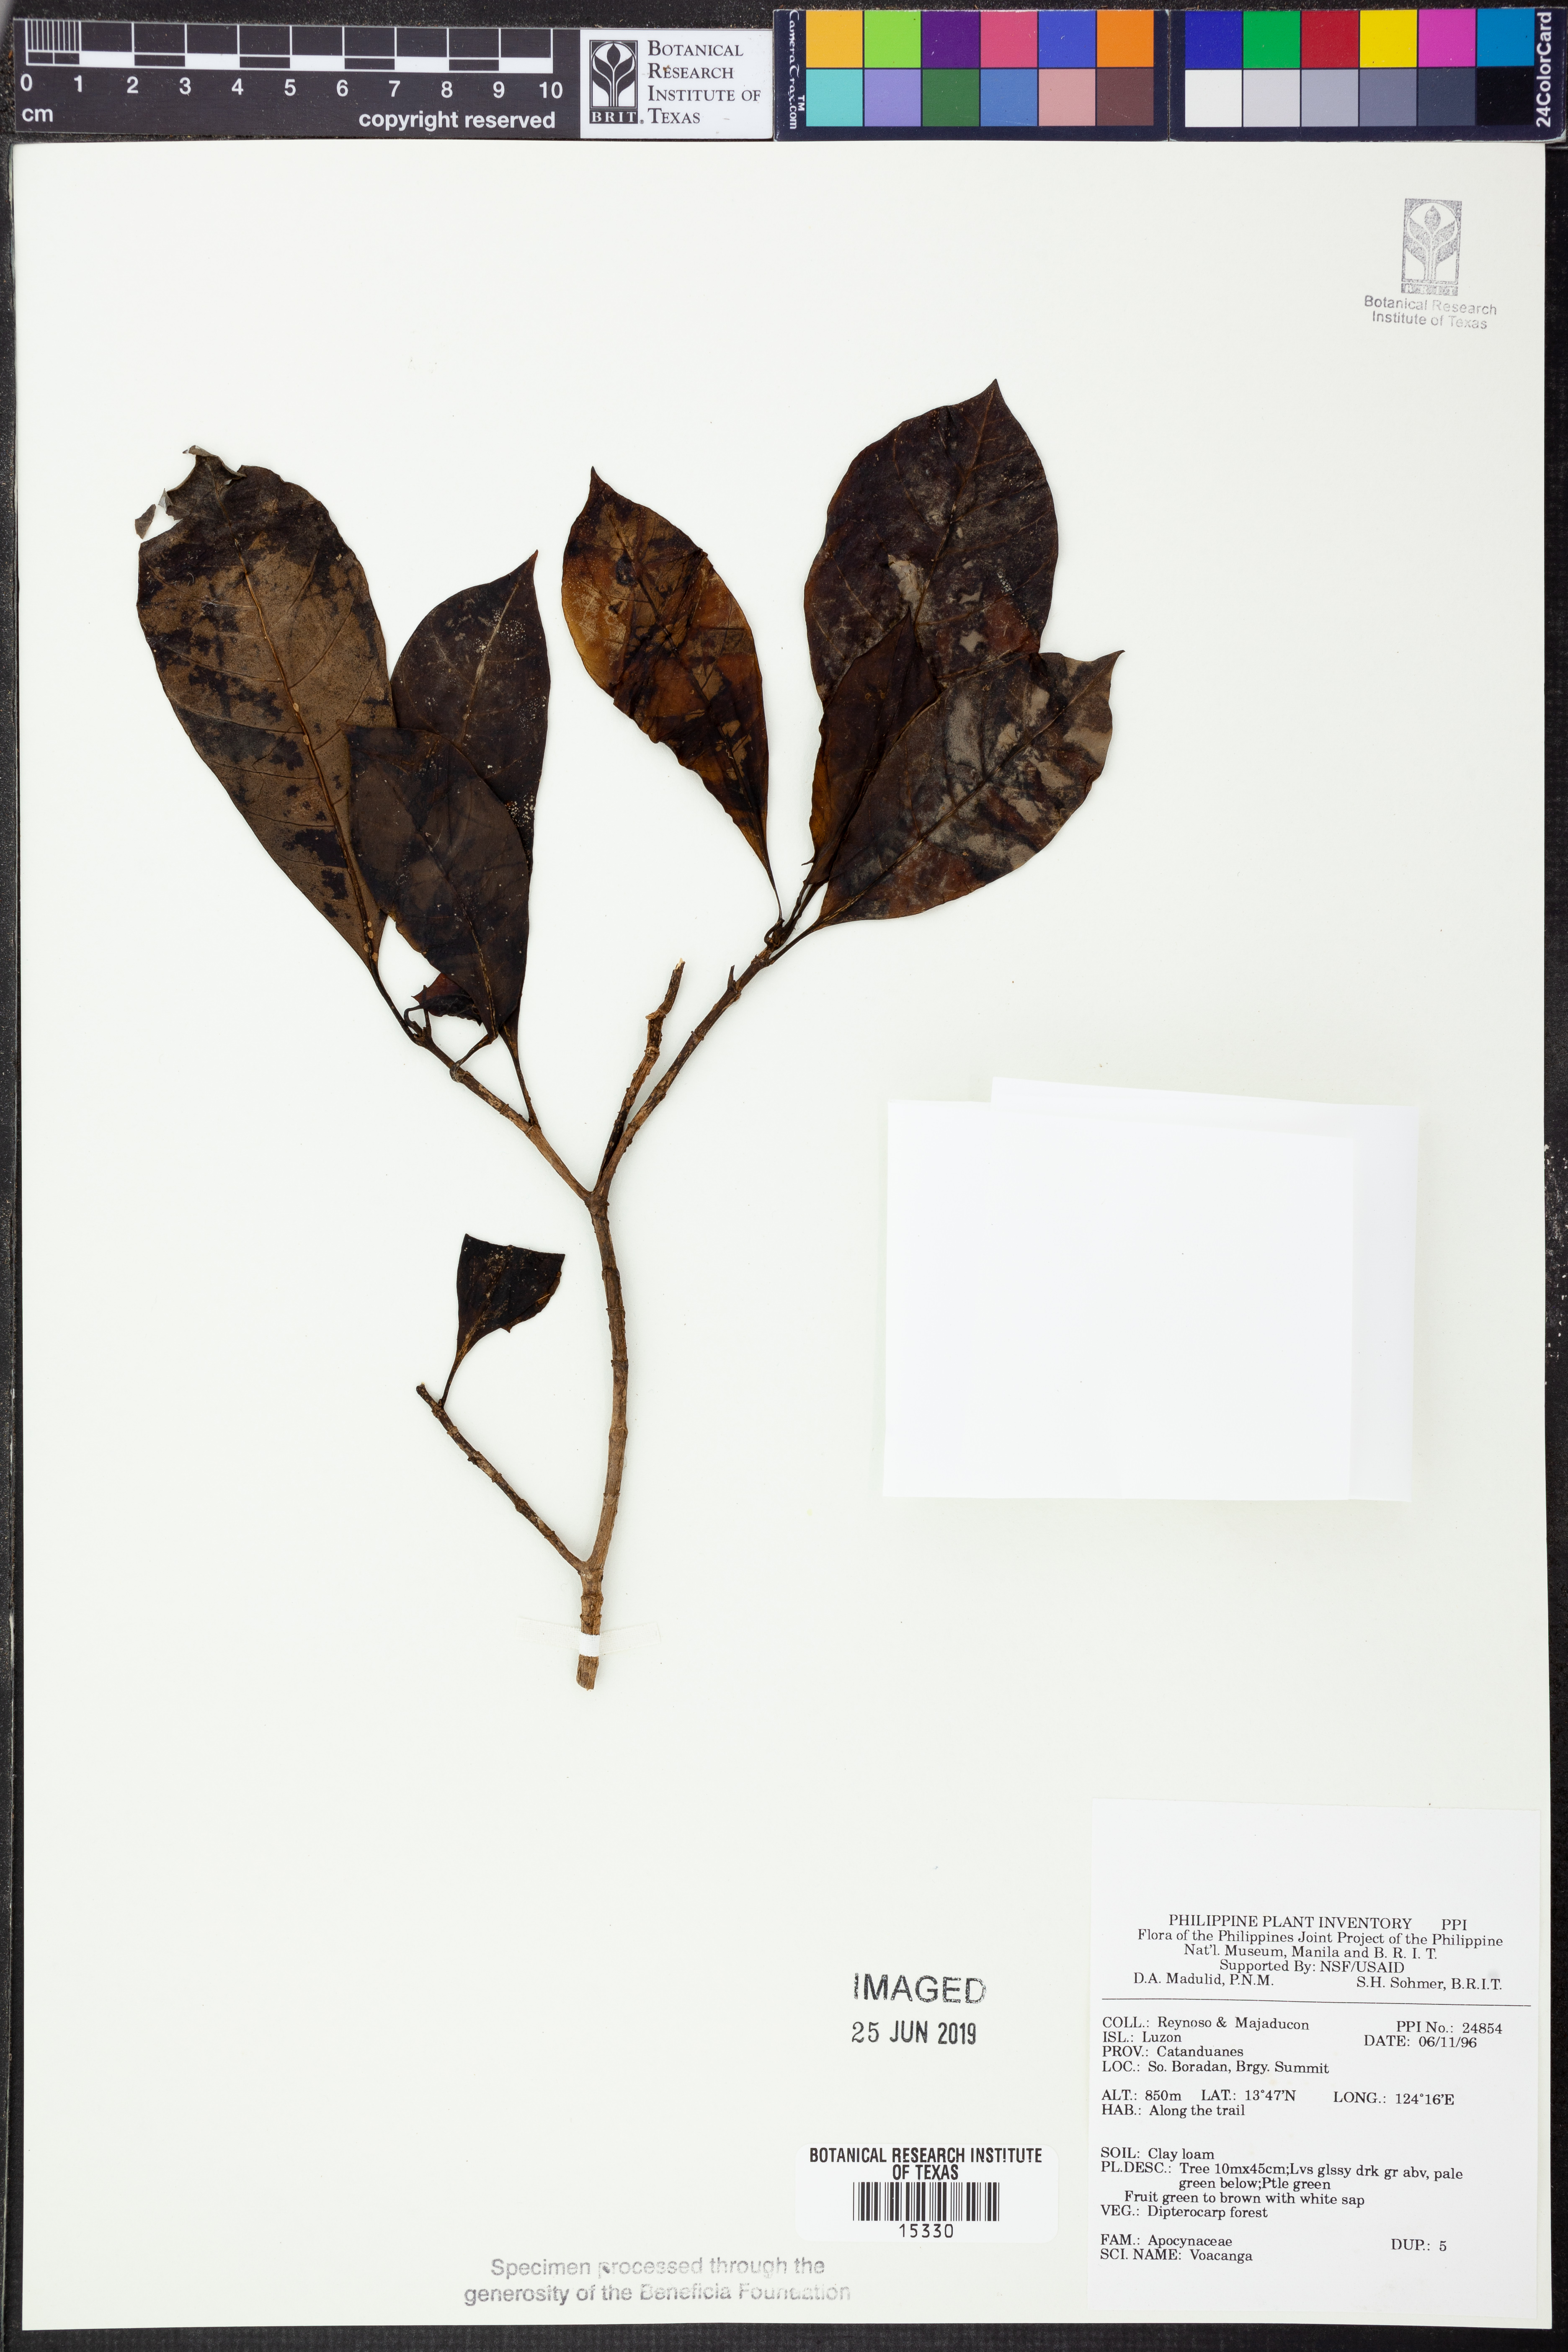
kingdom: Plantae
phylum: Tracheophyta
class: Magnoliopsida
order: Gentianales
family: Apocynaceae
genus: Voacanga
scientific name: Voacanga
